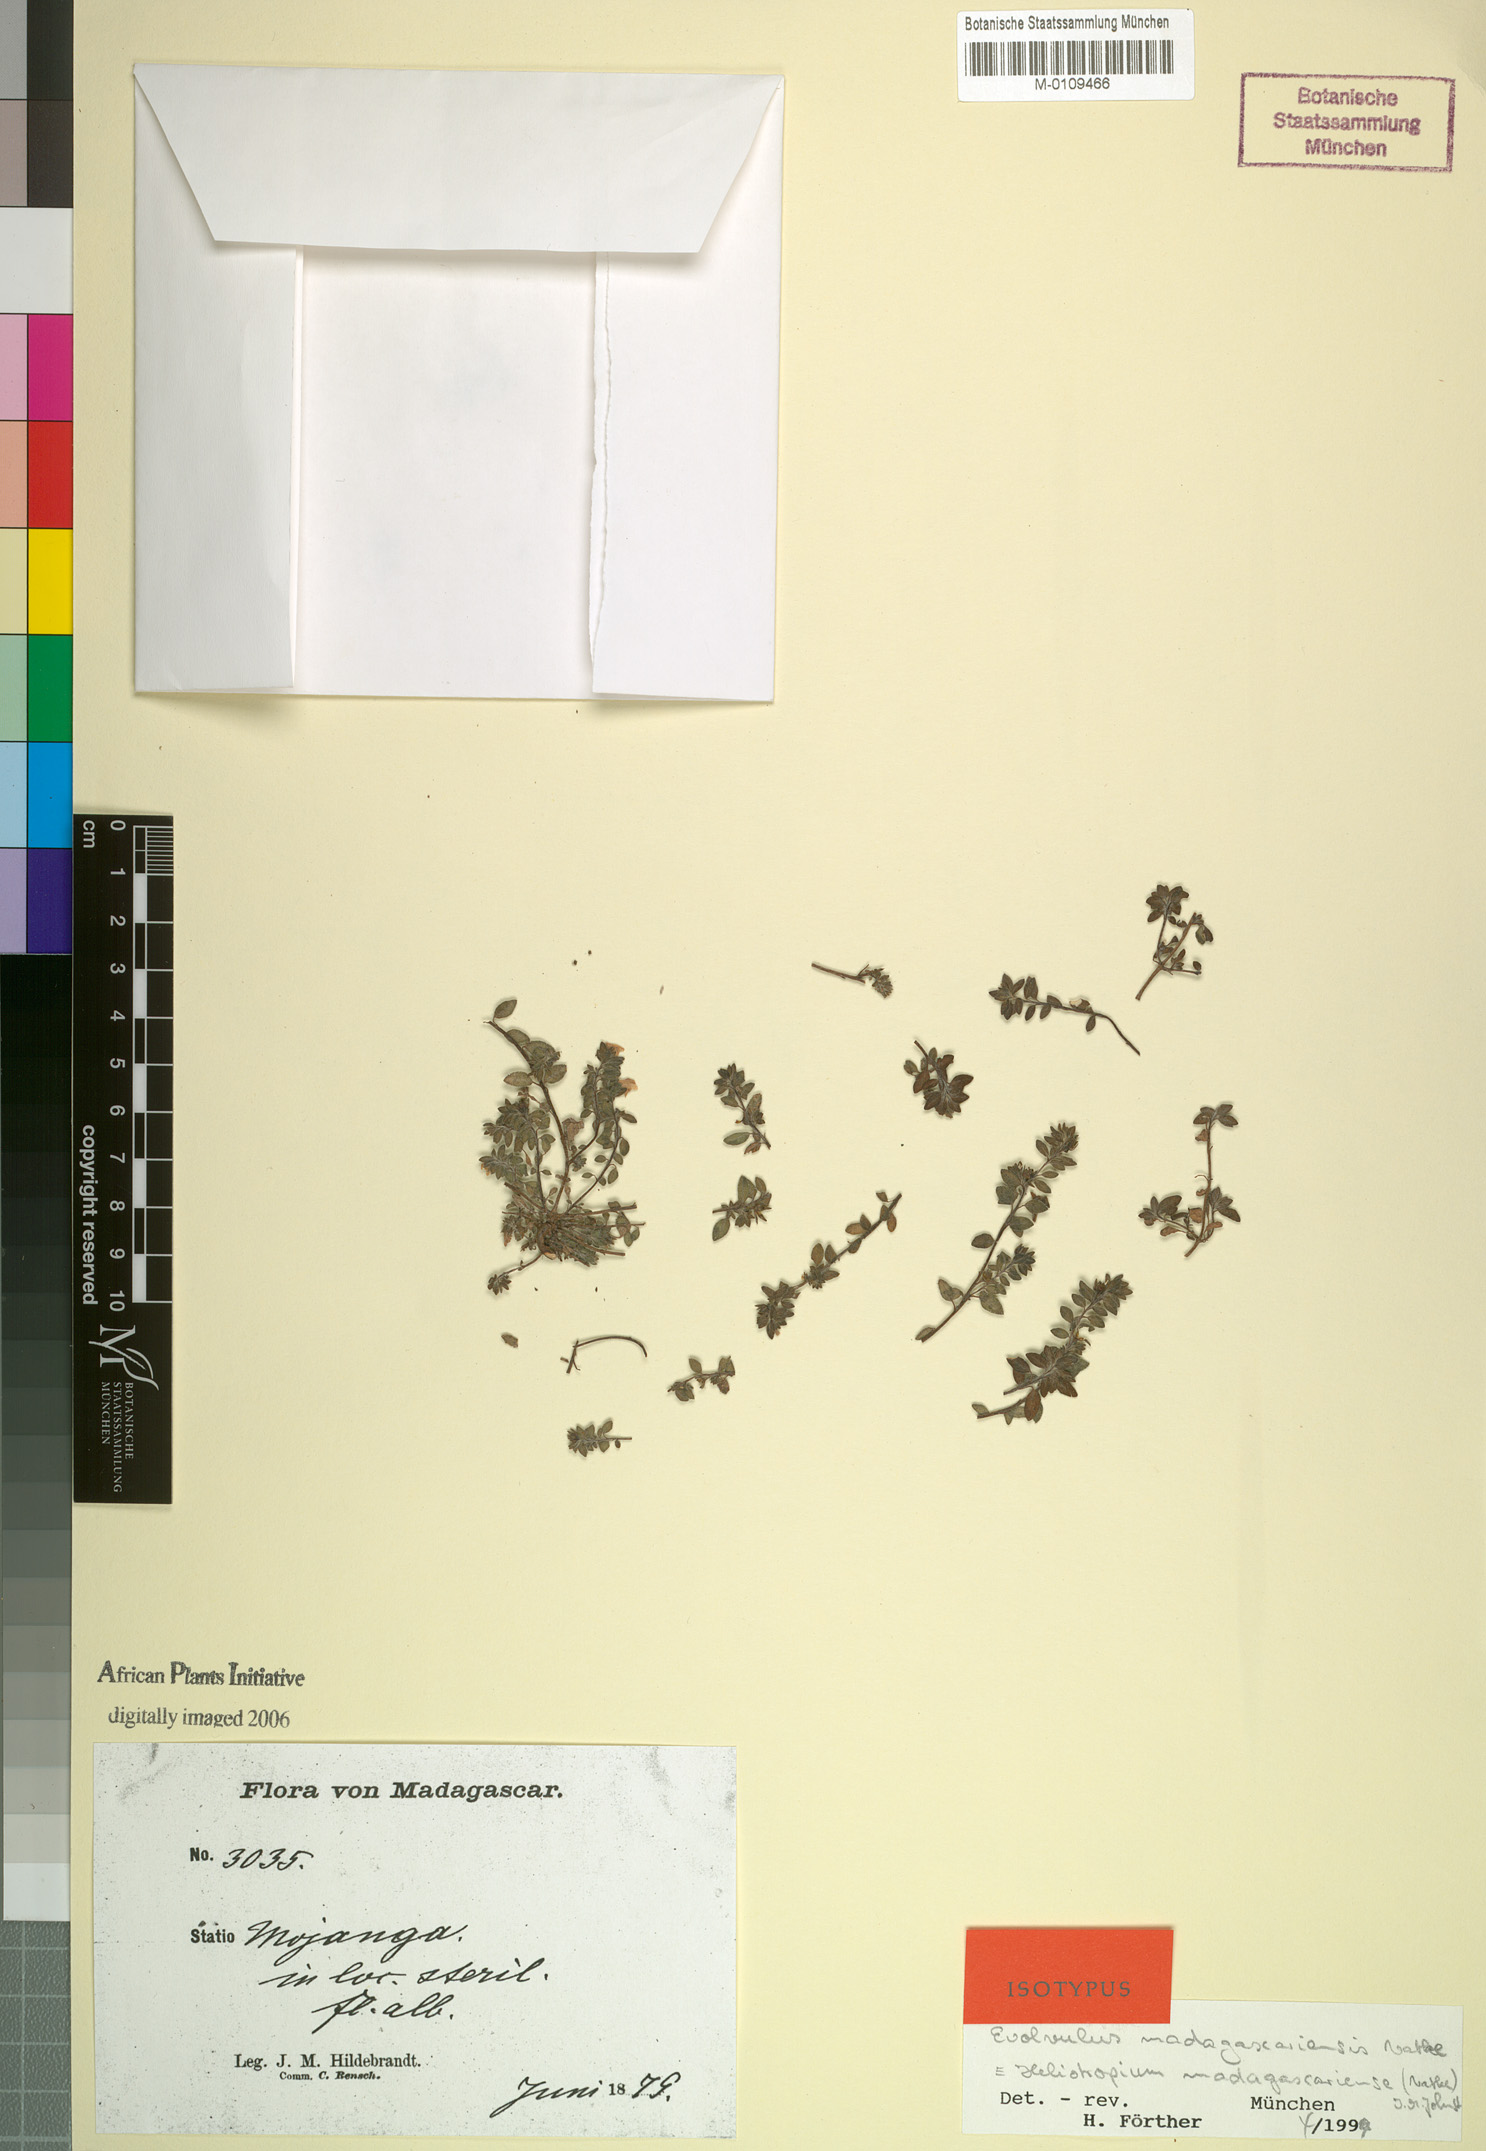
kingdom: Plantae
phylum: Tracheophyta
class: Magnoliopsida
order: Boraginales
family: Heliotropiaceae
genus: Euploca
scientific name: Euploca madagascariensis
